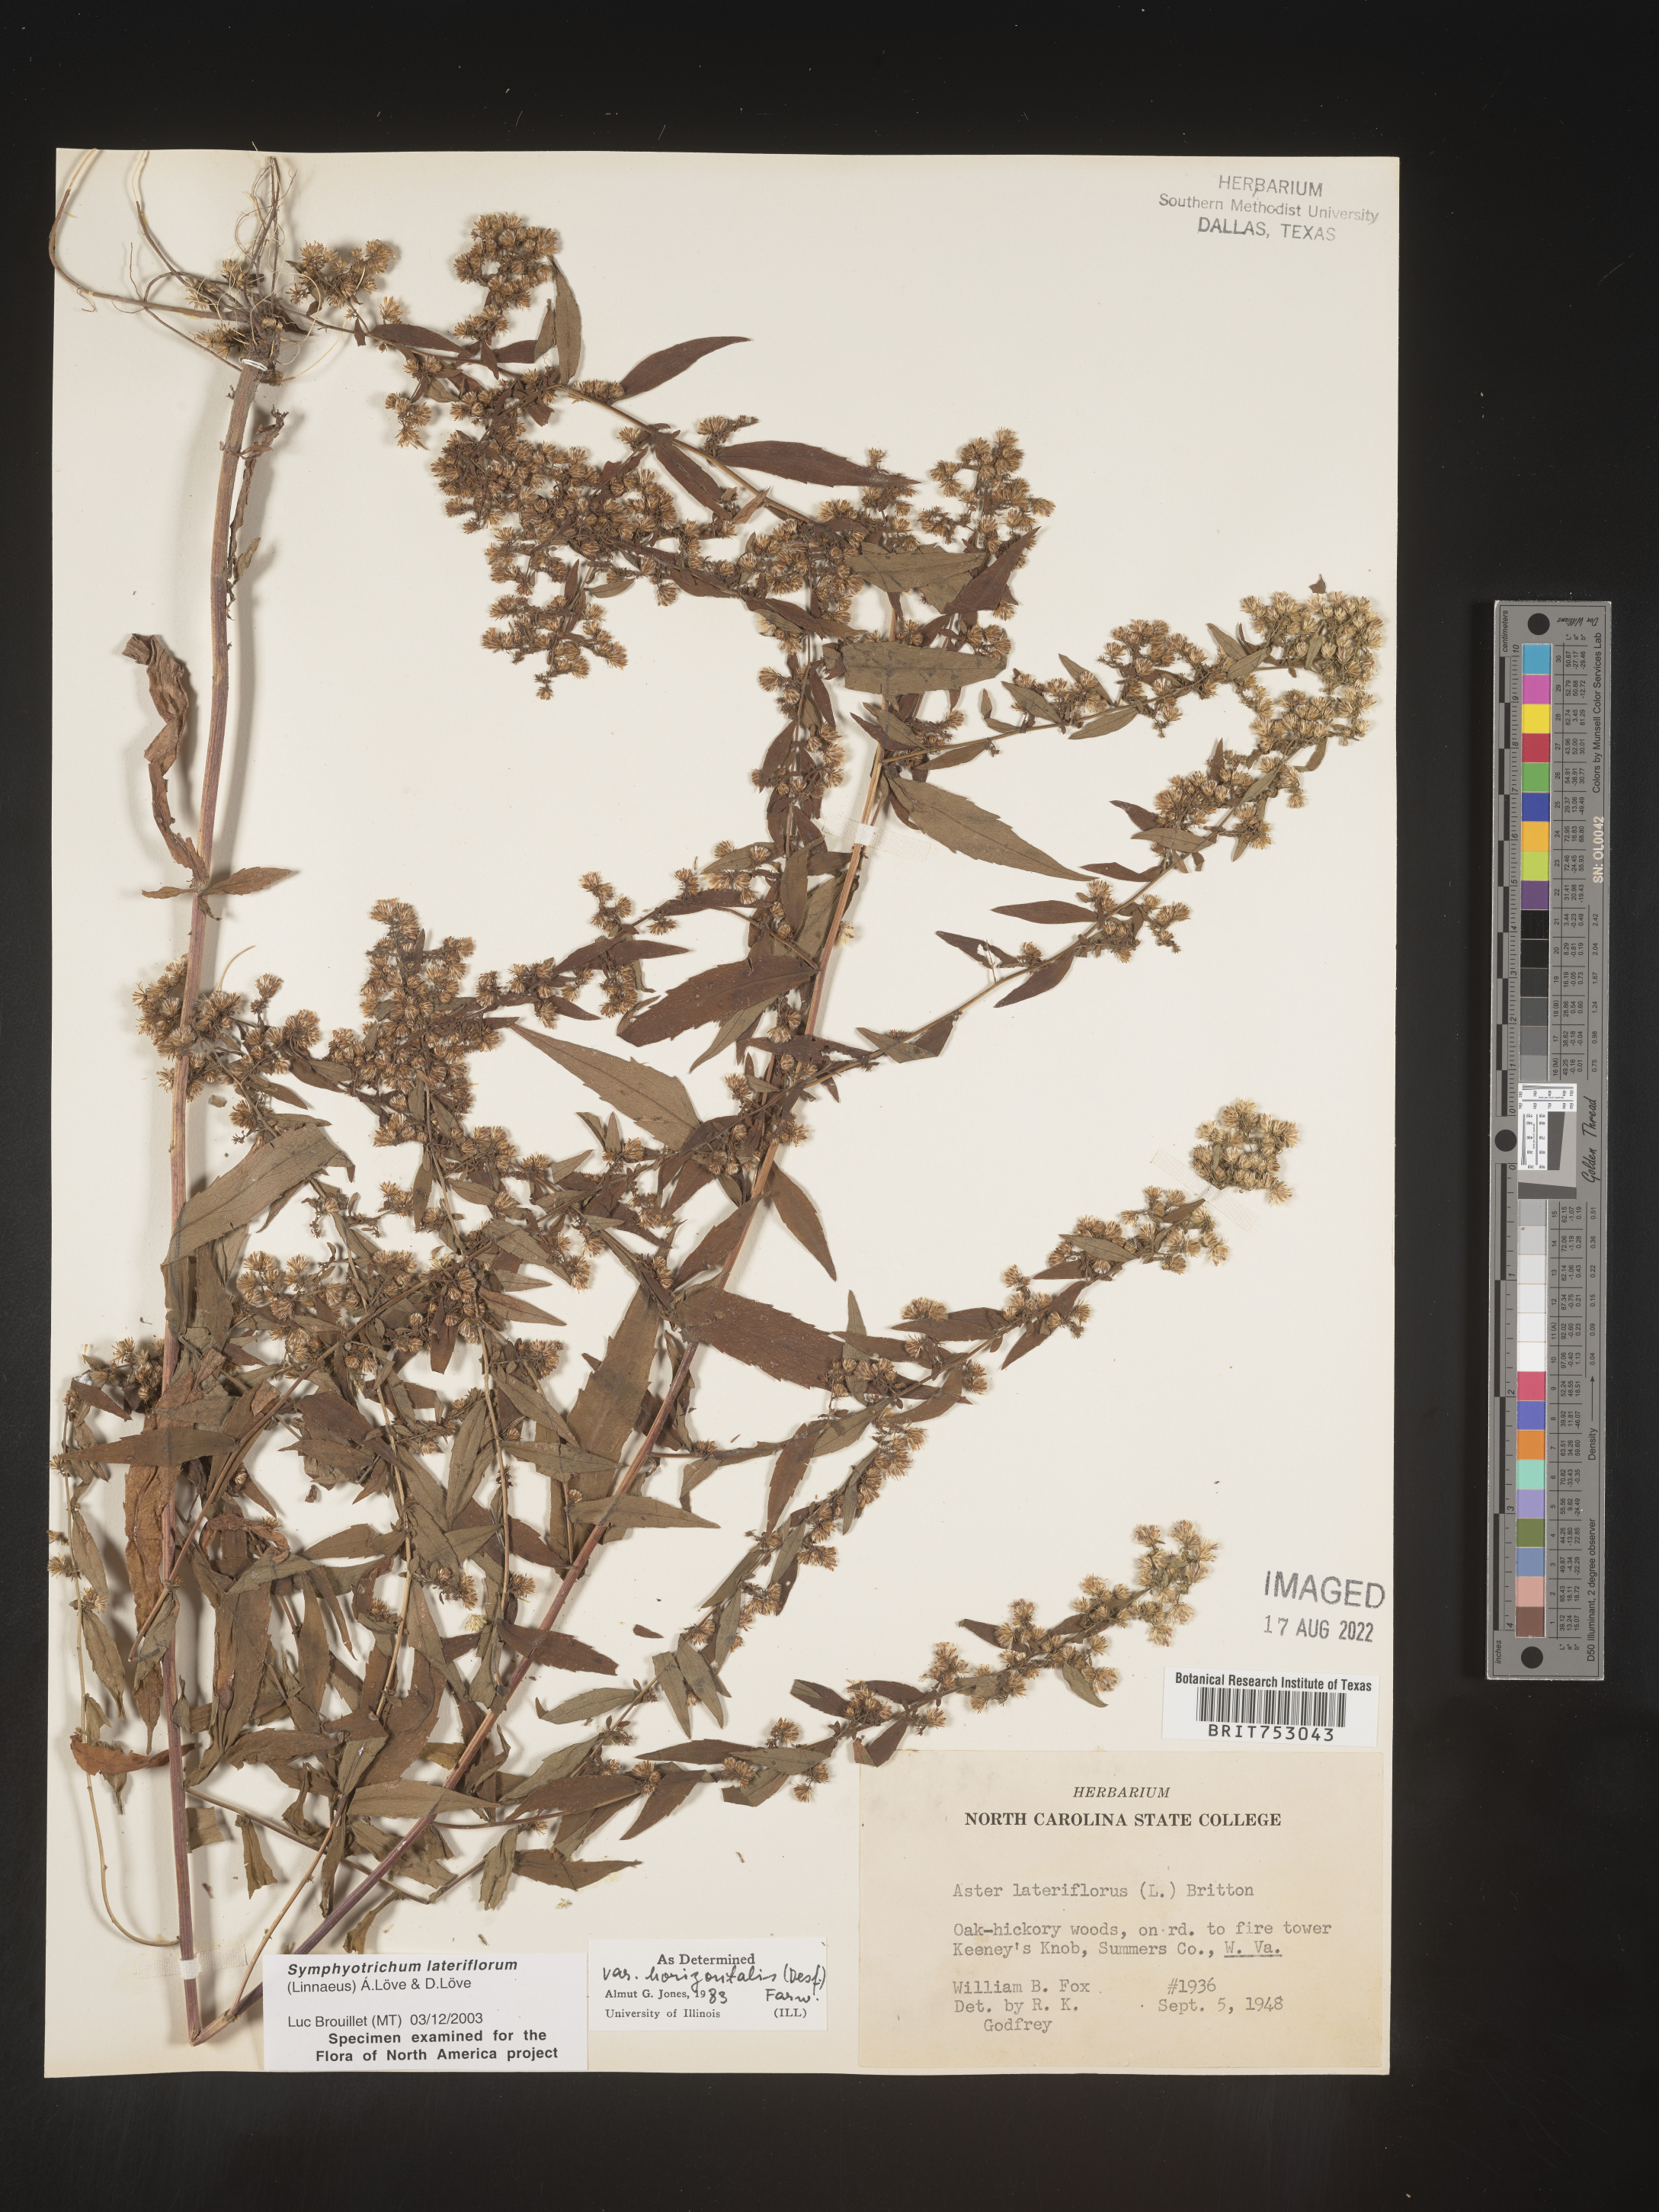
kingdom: Plantae
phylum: Tracheophyta
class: Magnoliopsida
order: Asterales
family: Asteraceae
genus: Symphyotrichum
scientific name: Symphyotrichum lateriflorum
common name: Calico aster
